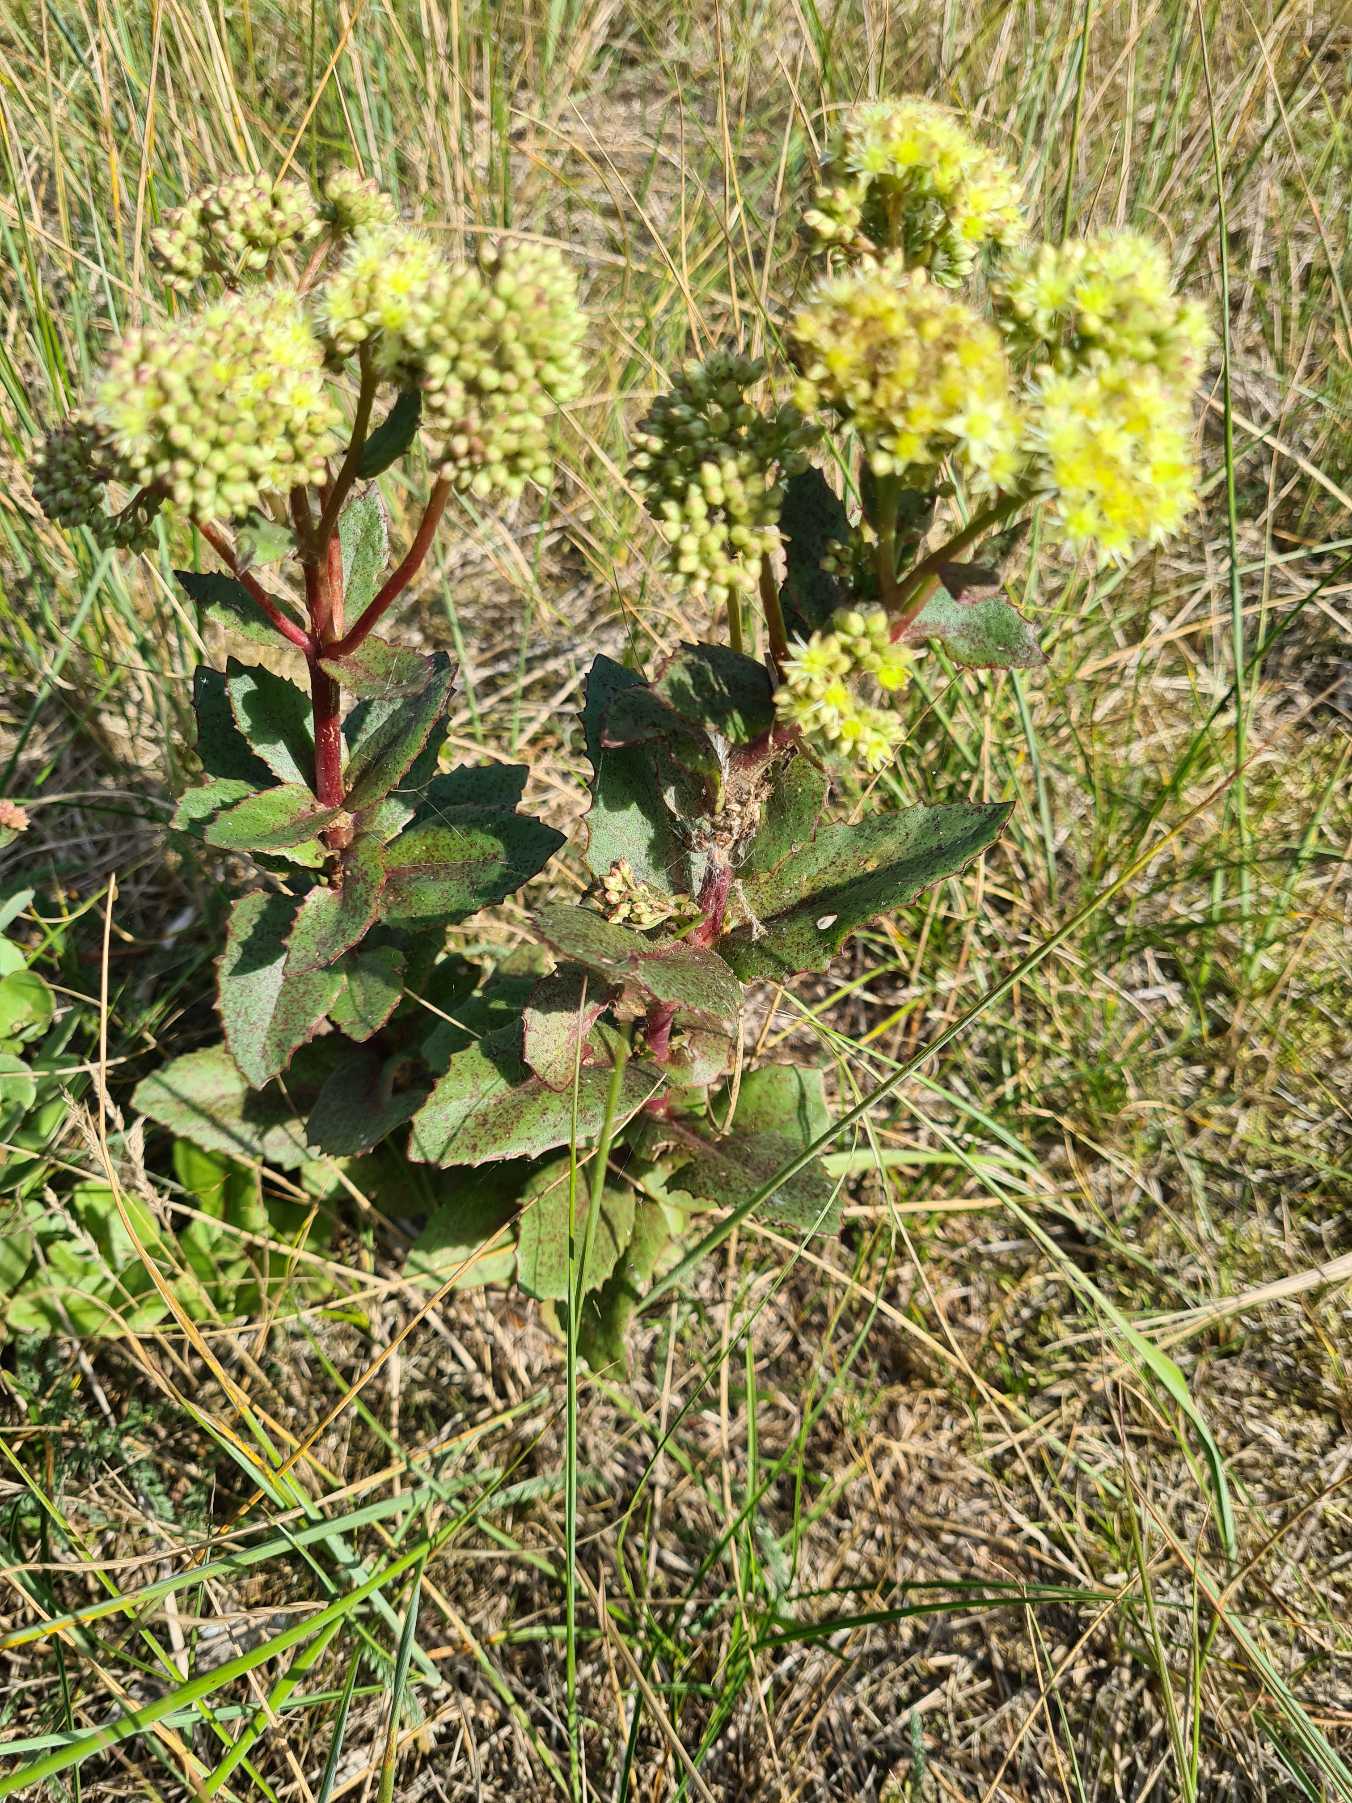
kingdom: Plantae
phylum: Tracheophyta
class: Magnoliopsida
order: Saxifragales
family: Crassulaceae
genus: Hylotelephium
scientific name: Hylotelephium maximum
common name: Almindelig sankthansurt
